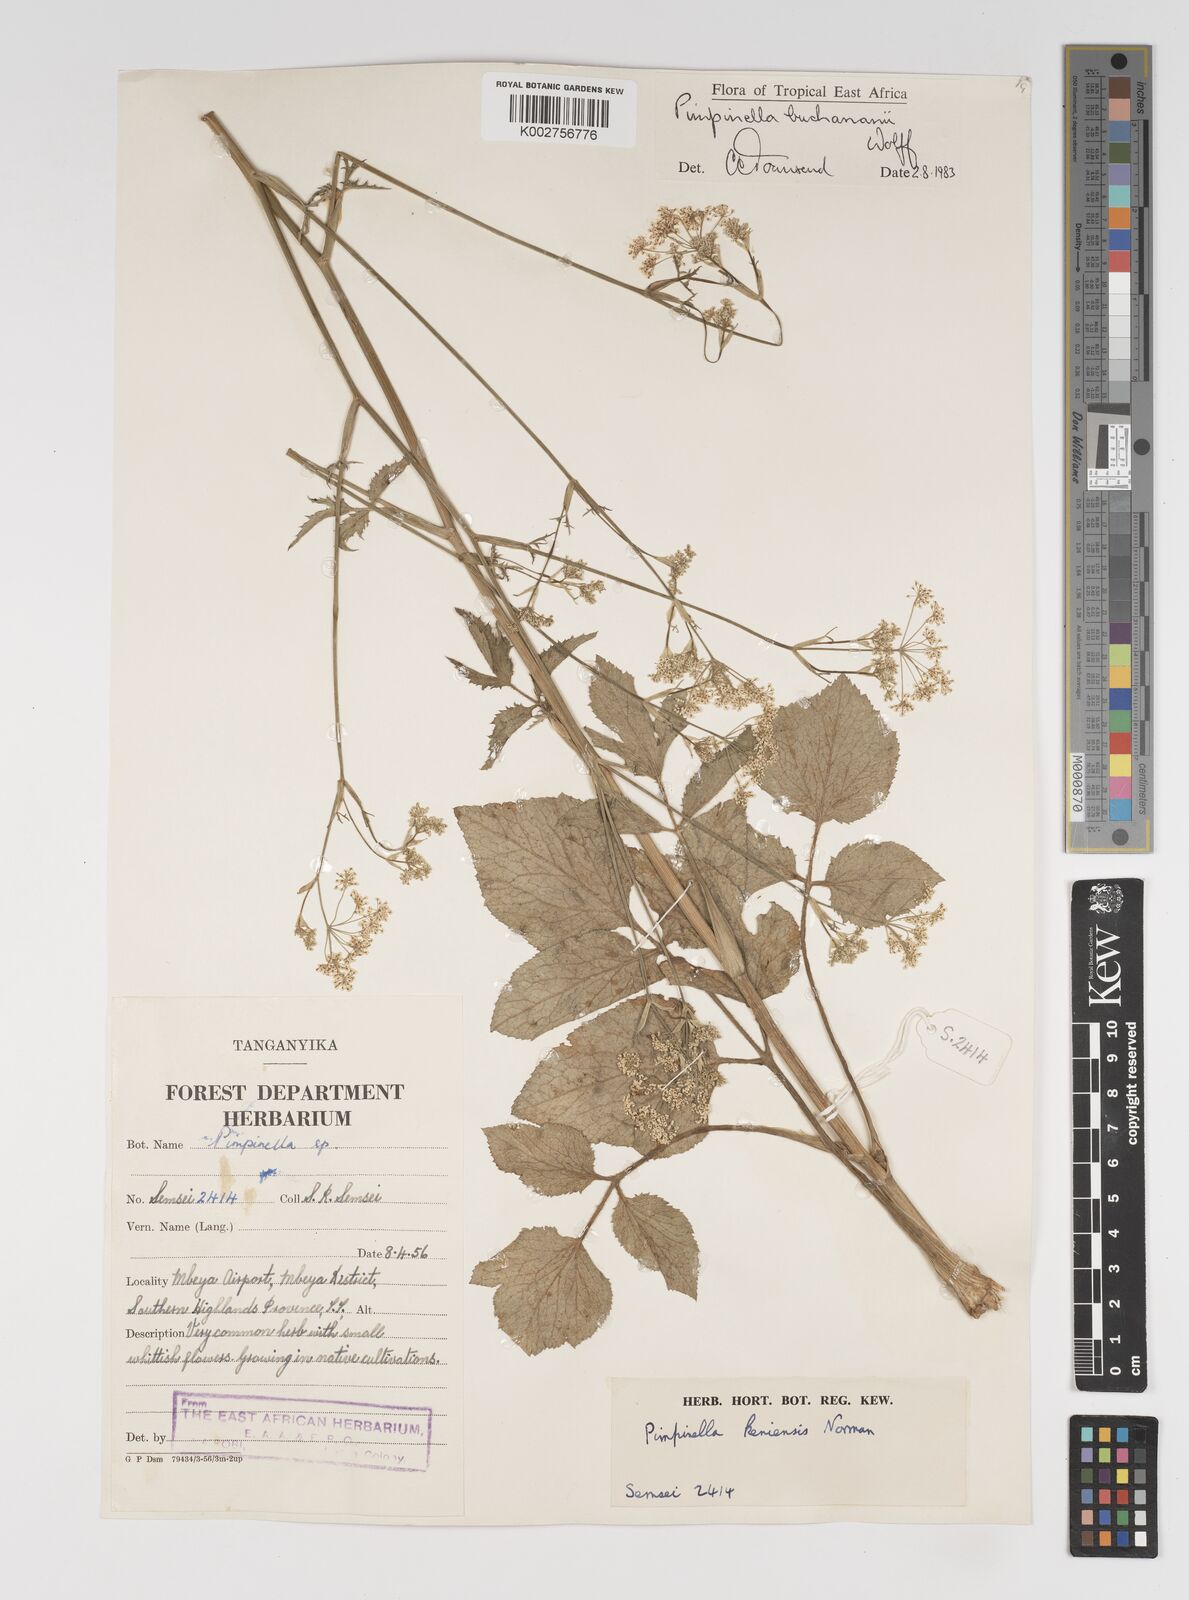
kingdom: Plantae
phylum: Tracheophyta
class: Magnoliopsida
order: Apiales
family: Apiaceae
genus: Pimpinella
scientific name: Pimpinella buchananii
